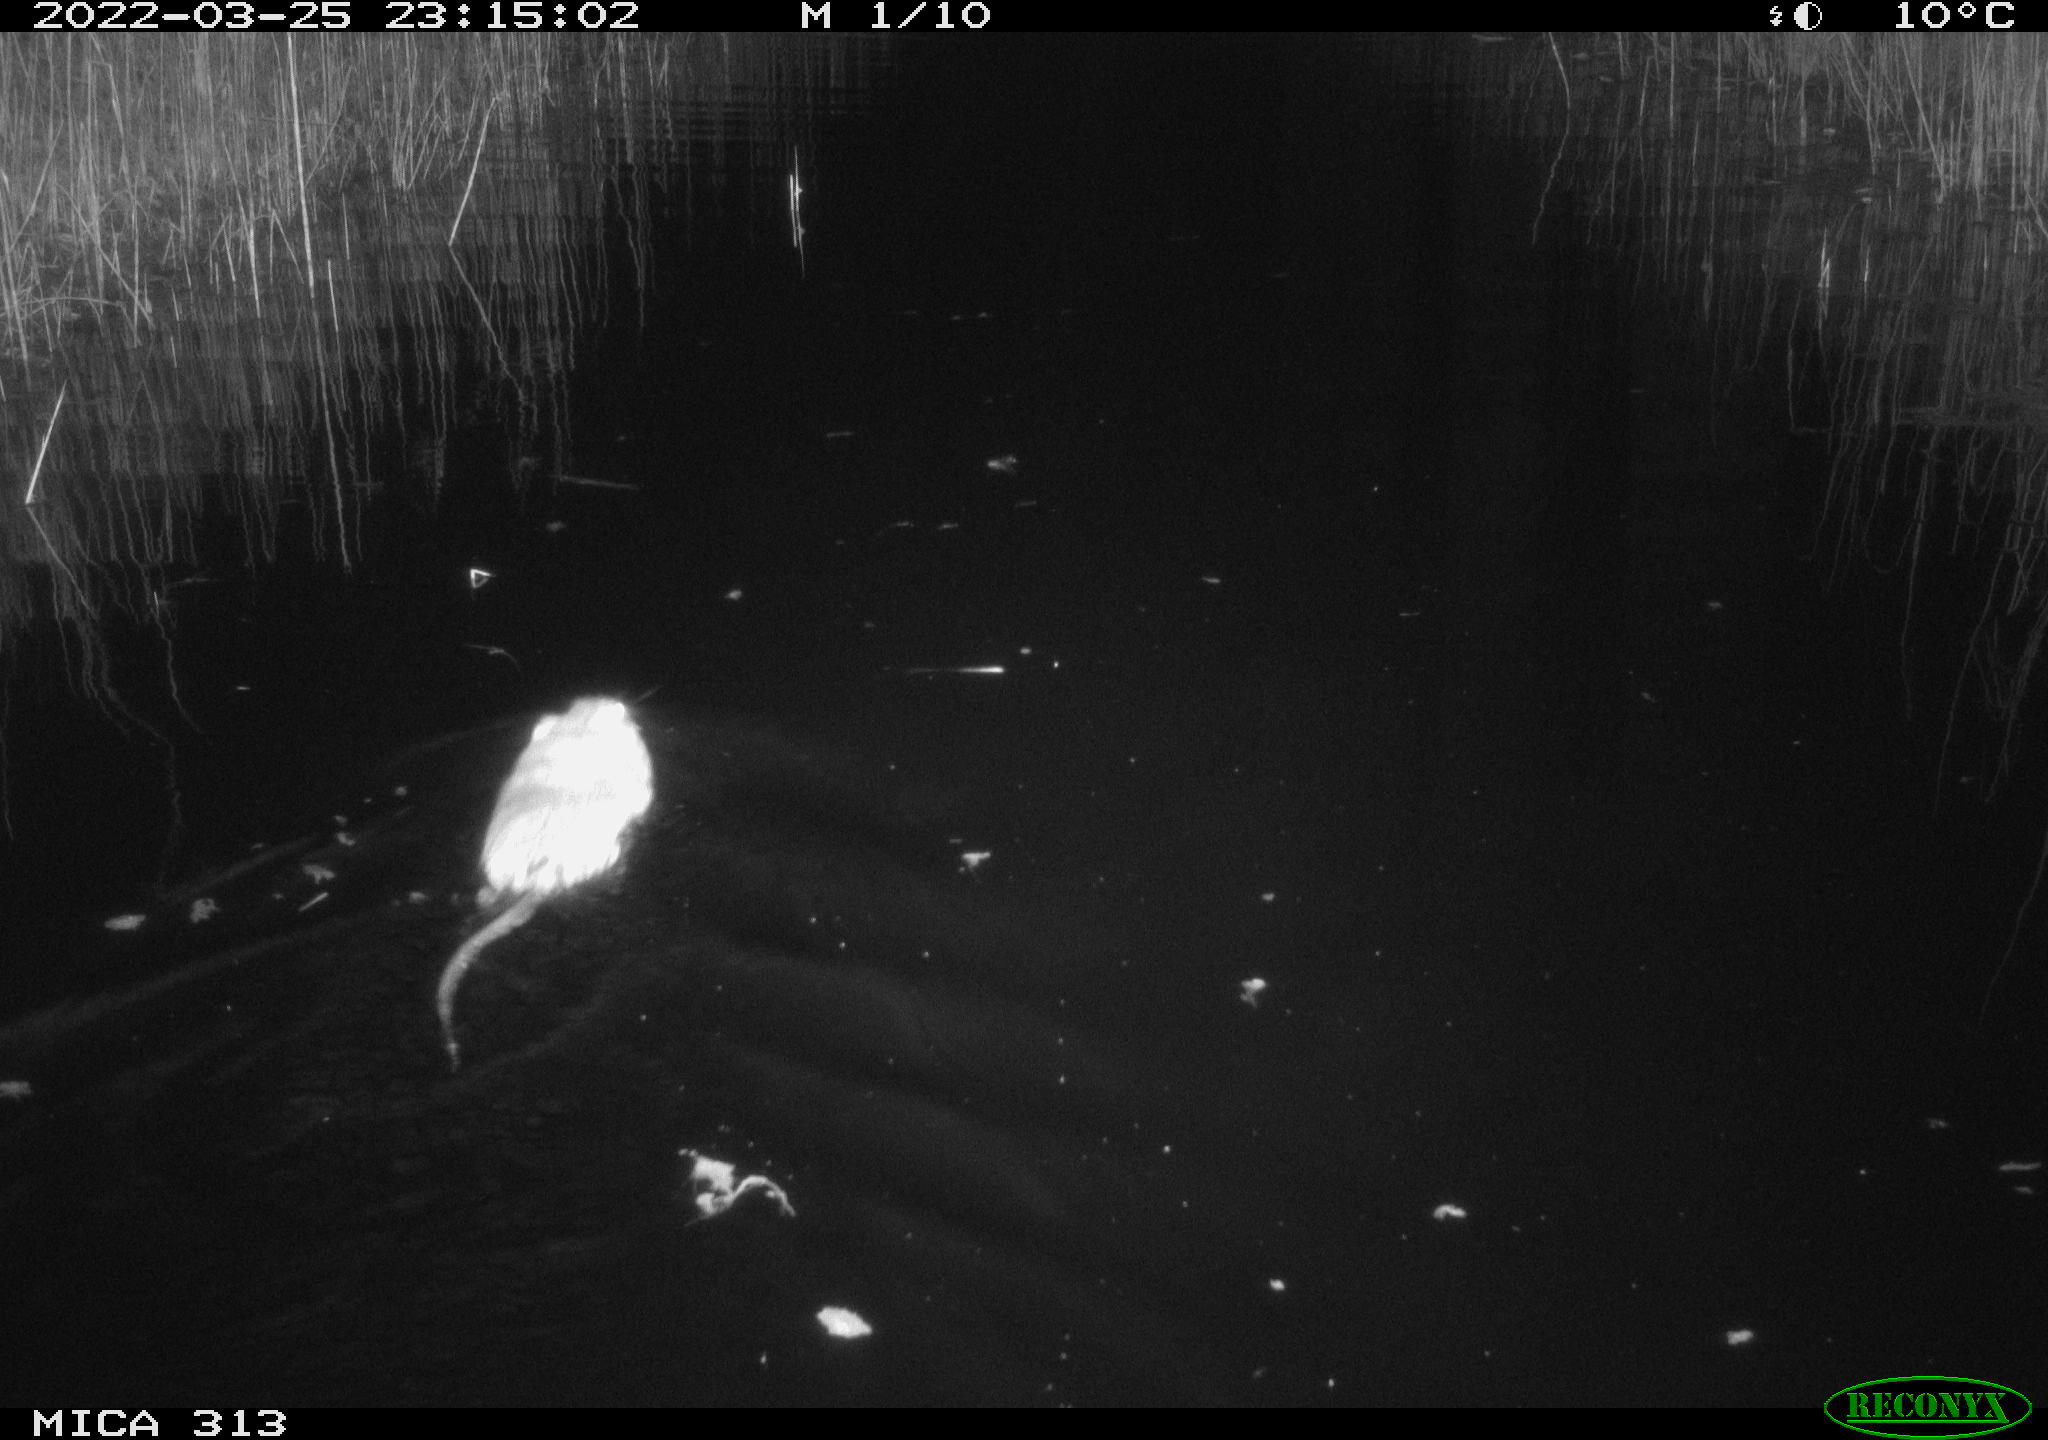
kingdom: Animalia
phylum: Chordata
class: Mammalia
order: Rodentia
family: Cricetidae
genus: Ondatra
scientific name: Ondatra zibethicus
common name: Muskrat
